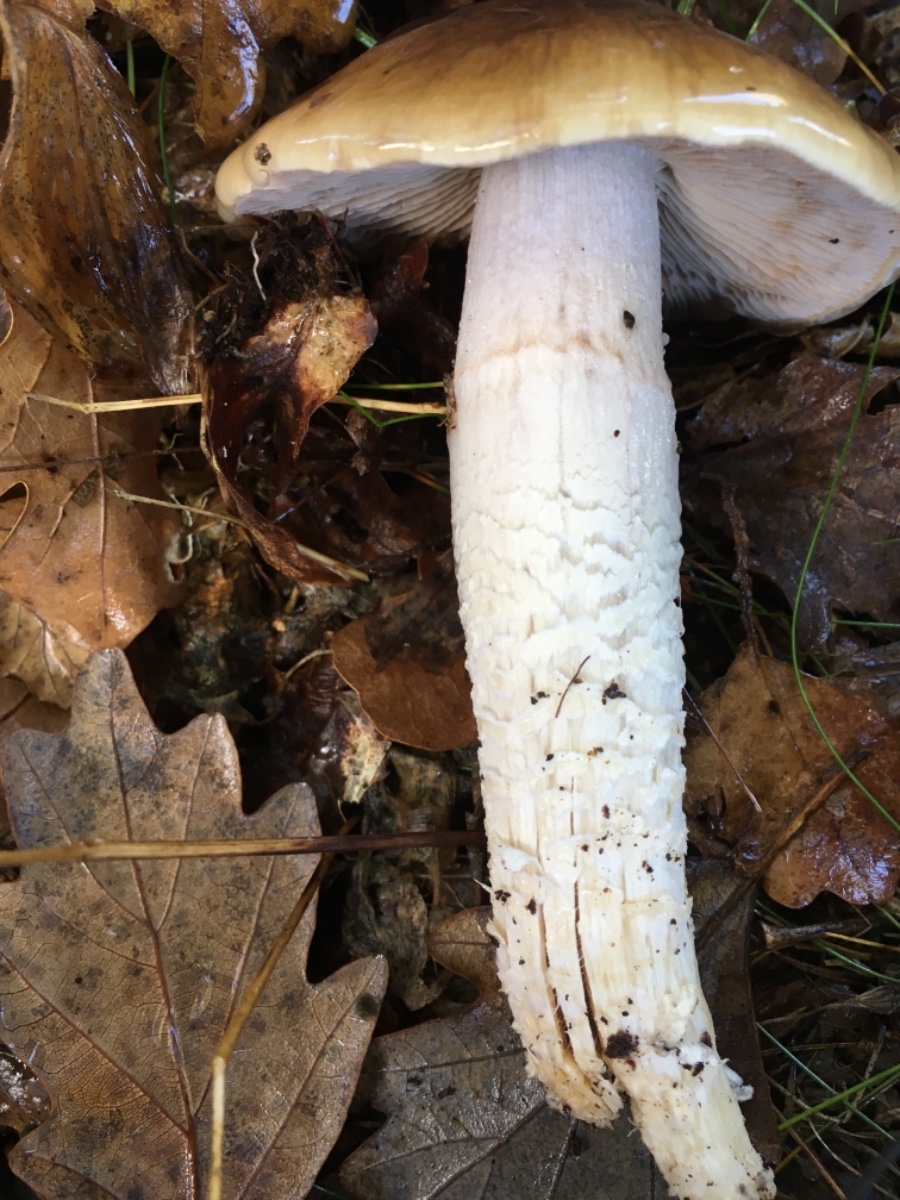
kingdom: Fungi
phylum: Basidiomycota
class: Agaricomycetes
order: Agaricales
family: Cortinariaceae
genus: Cortinarius
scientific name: Cortinarius elatior
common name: høj slørhat
